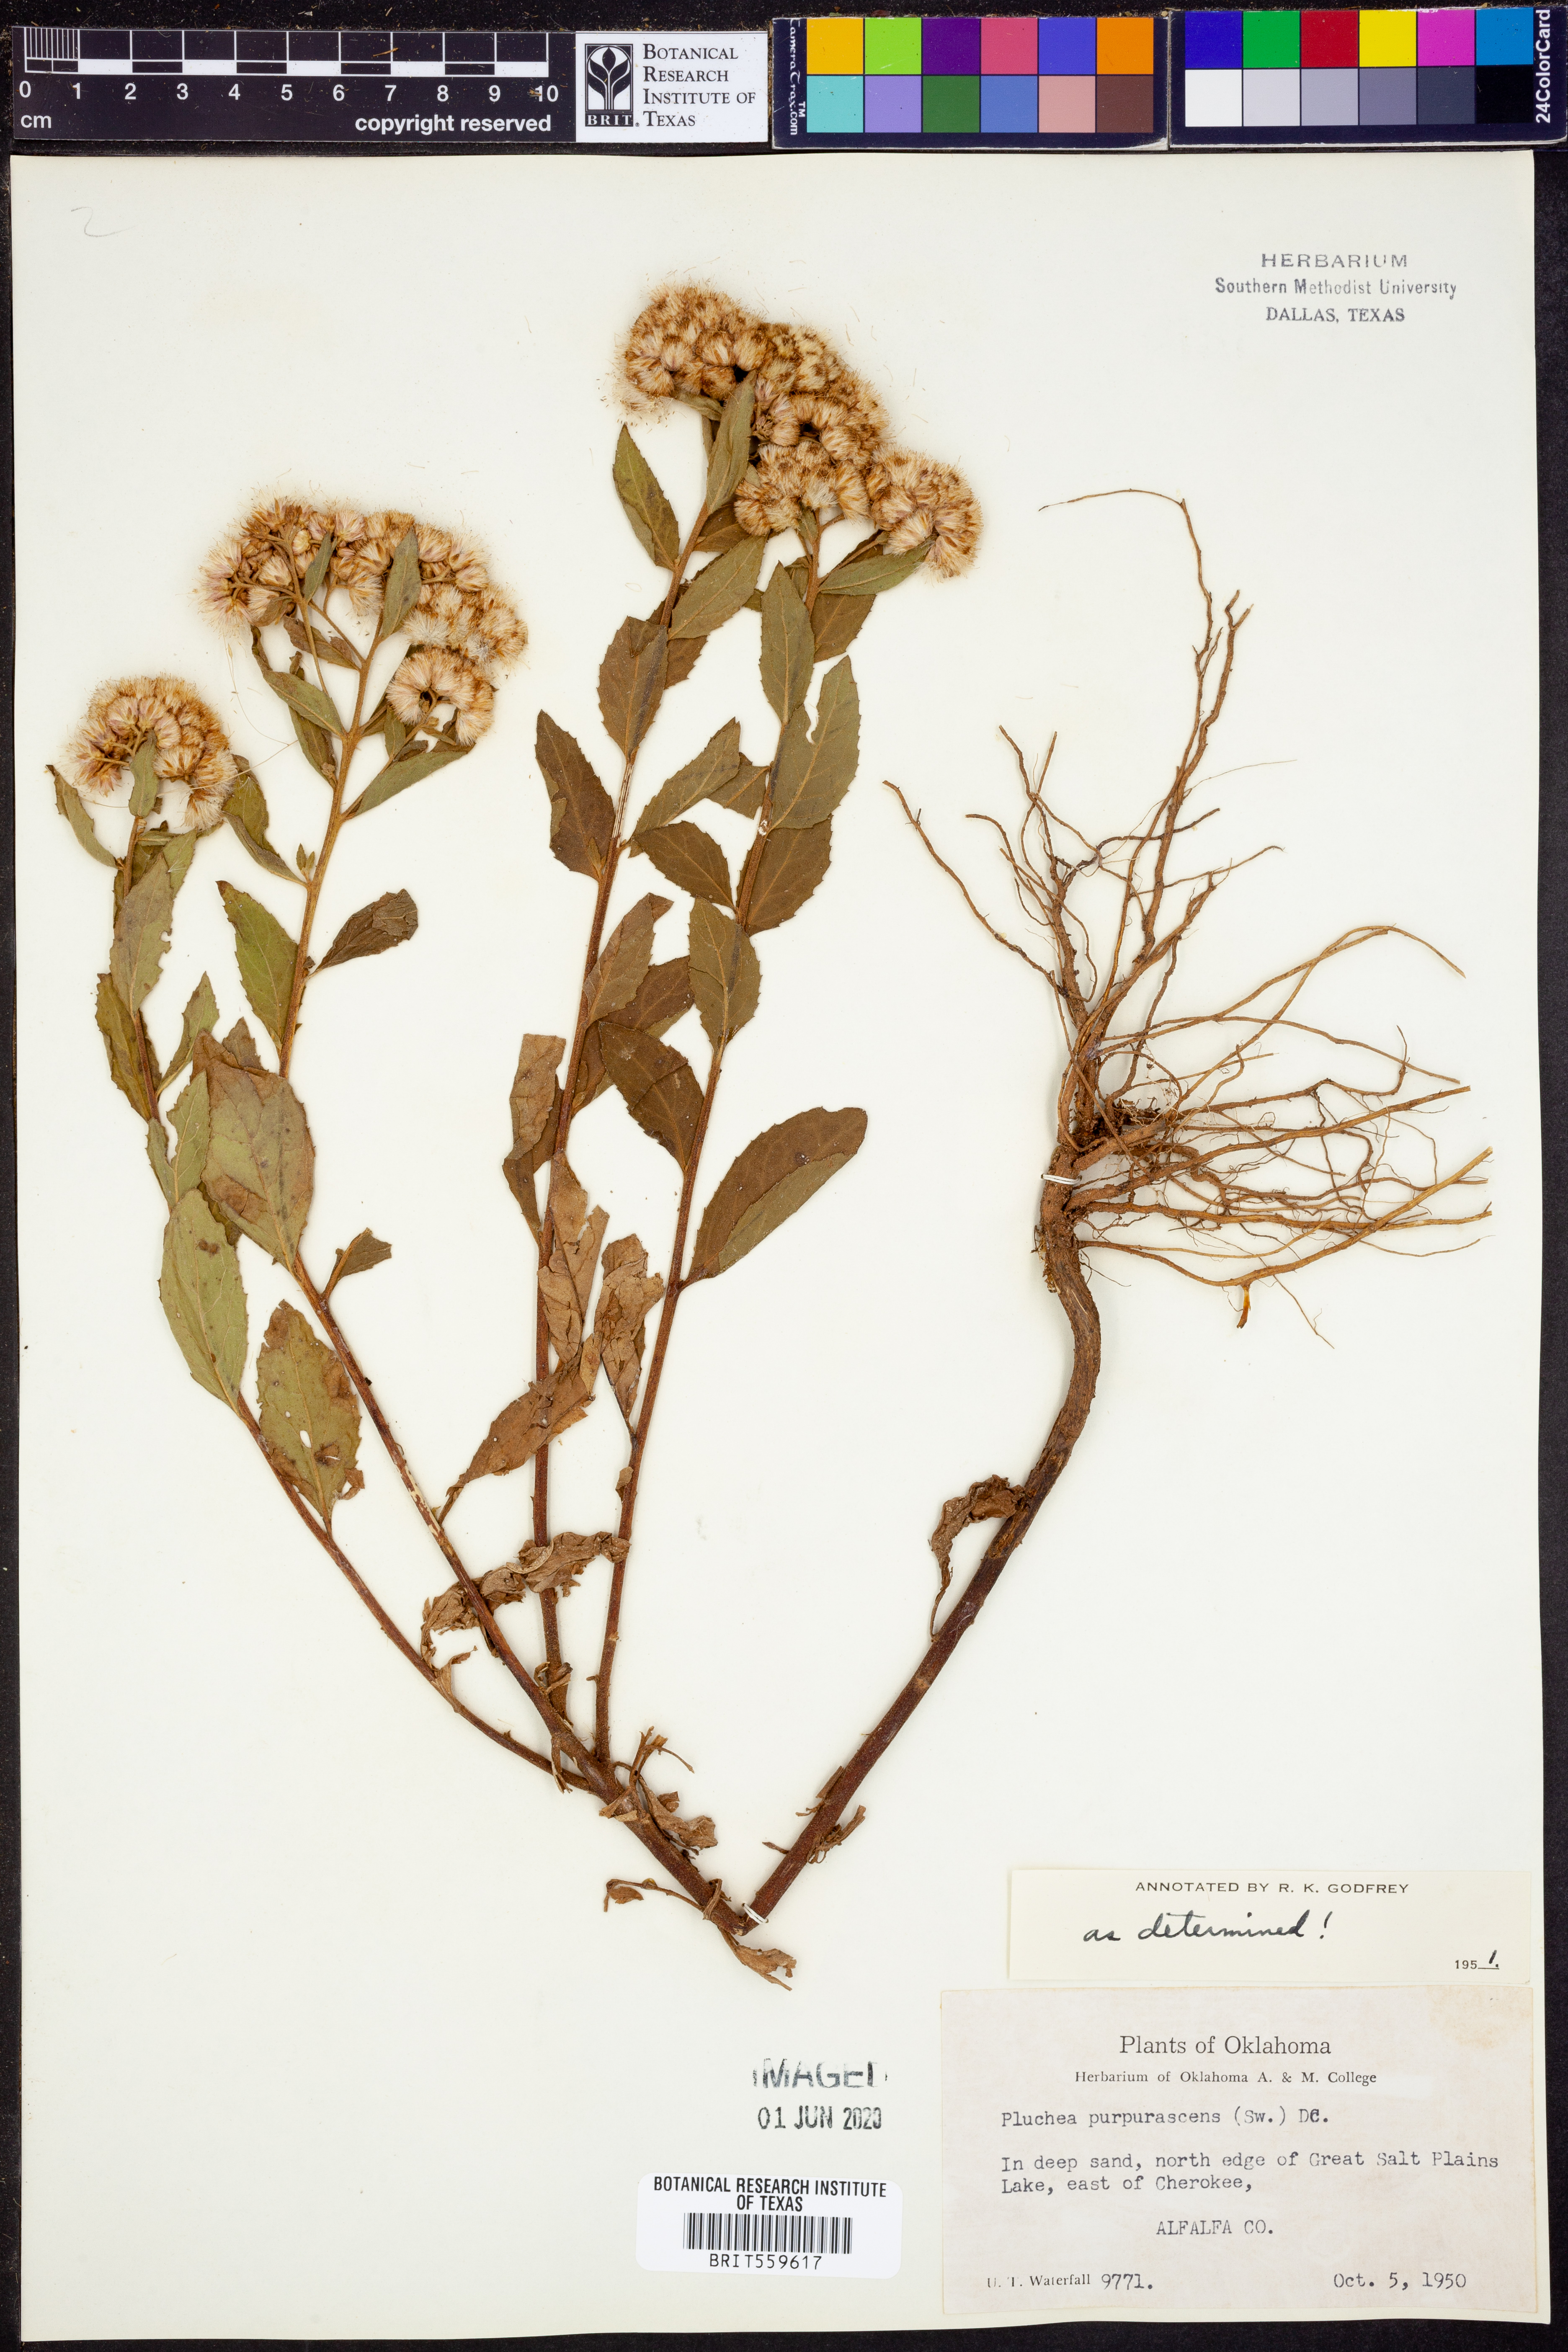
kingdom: Plantae
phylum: Tracheophyta
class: Magnoliopsida
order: Asterales
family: Asteraceae
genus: Pluchea
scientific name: Pluchea odorata
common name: Saltmarsh fleabane
